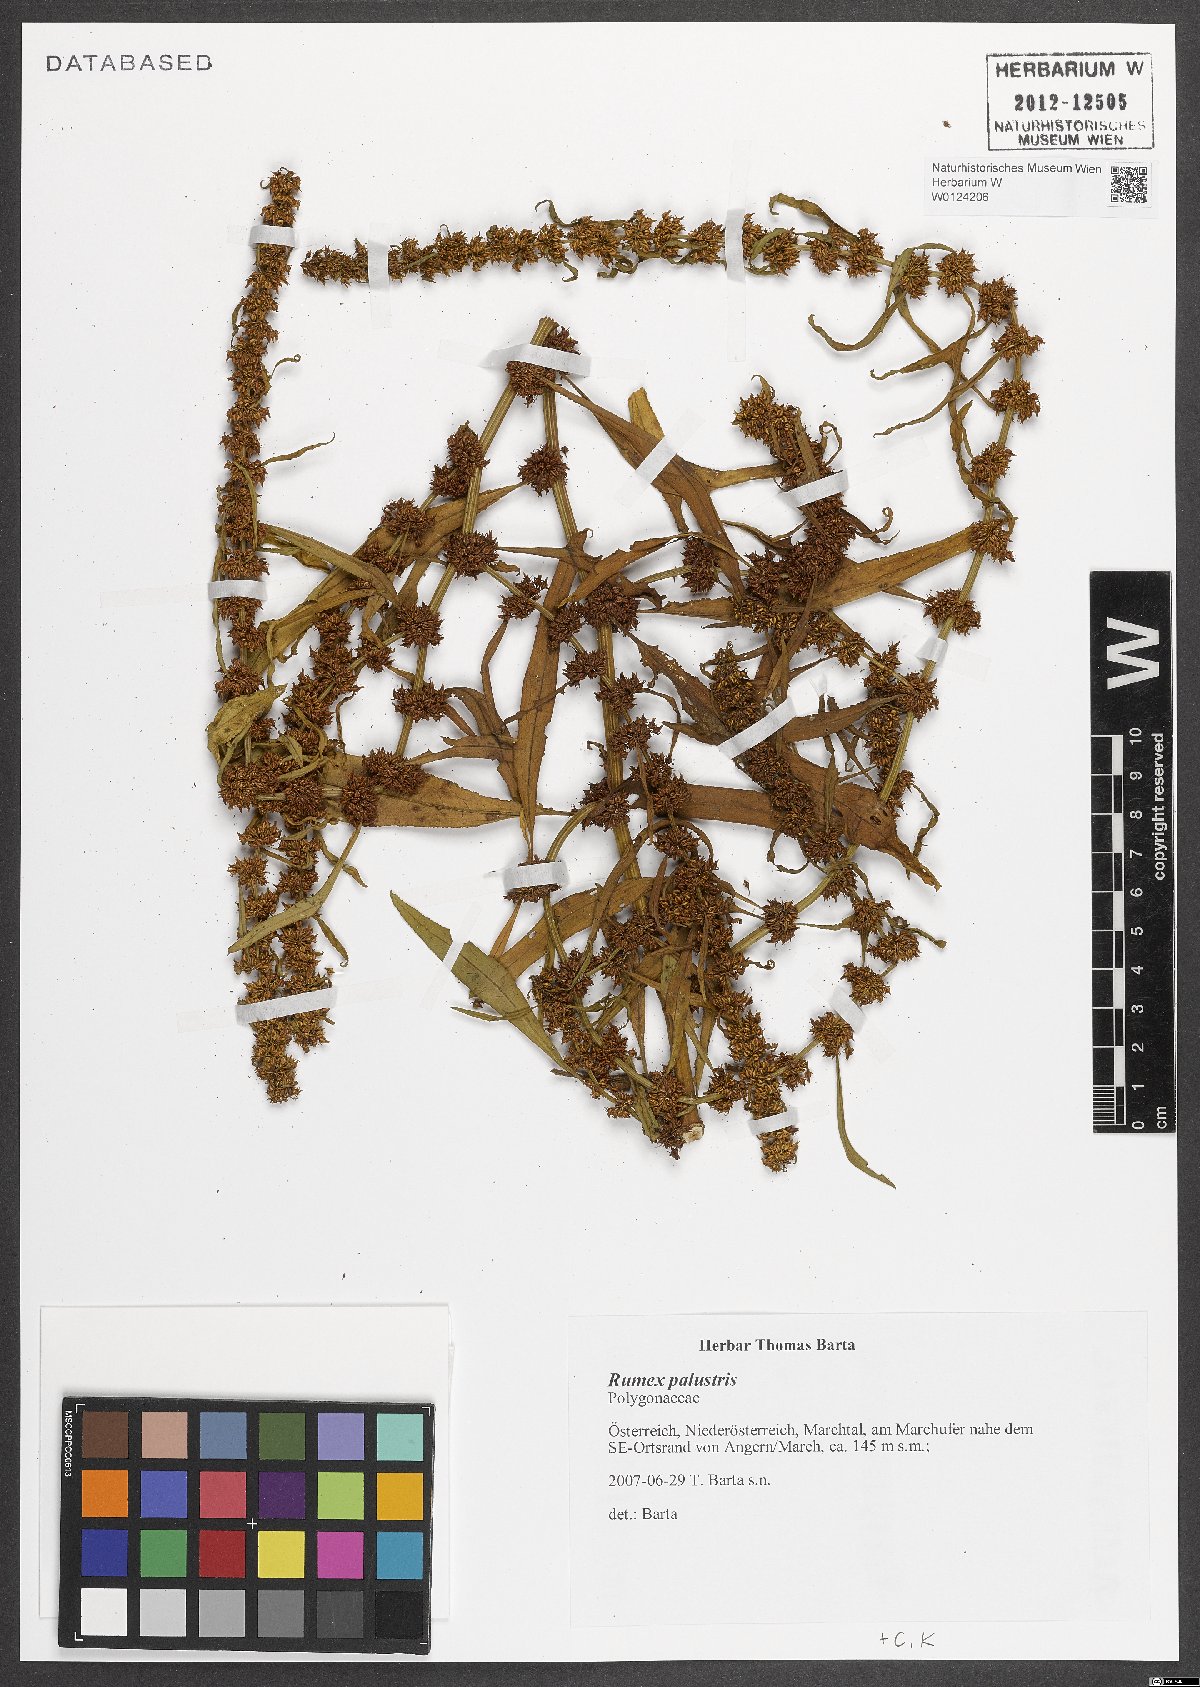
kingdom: Plantae
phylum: Tracheophyta
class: Magnoliopsida
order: Caryophyllales
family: Polygonaceae
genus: Rumex
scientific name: Rumex palustris
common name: Marsh dock
